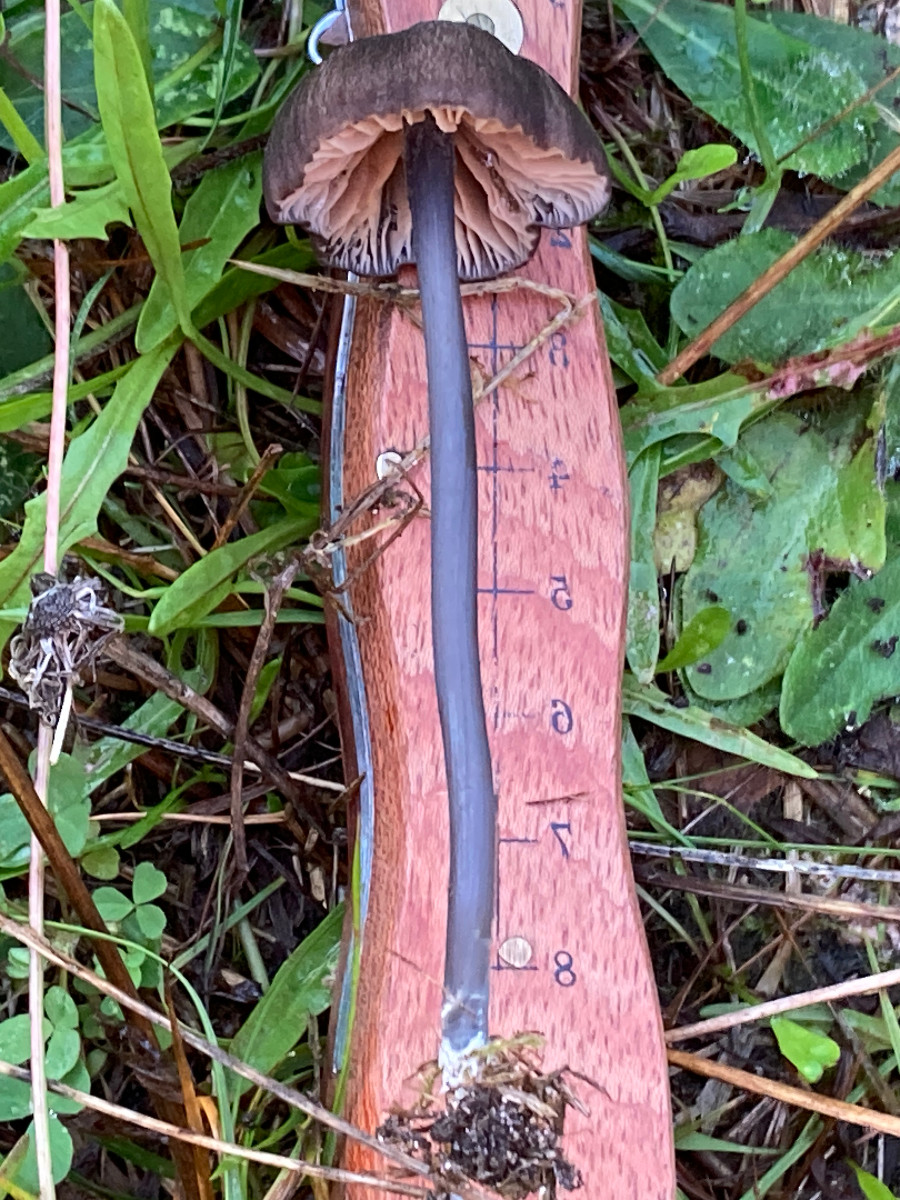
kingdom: Fungi
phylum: Basidiomycota
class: Agaricomycetes
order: Agaricales
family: Entolomataceae
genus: Entoloma
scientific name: Entoloma
